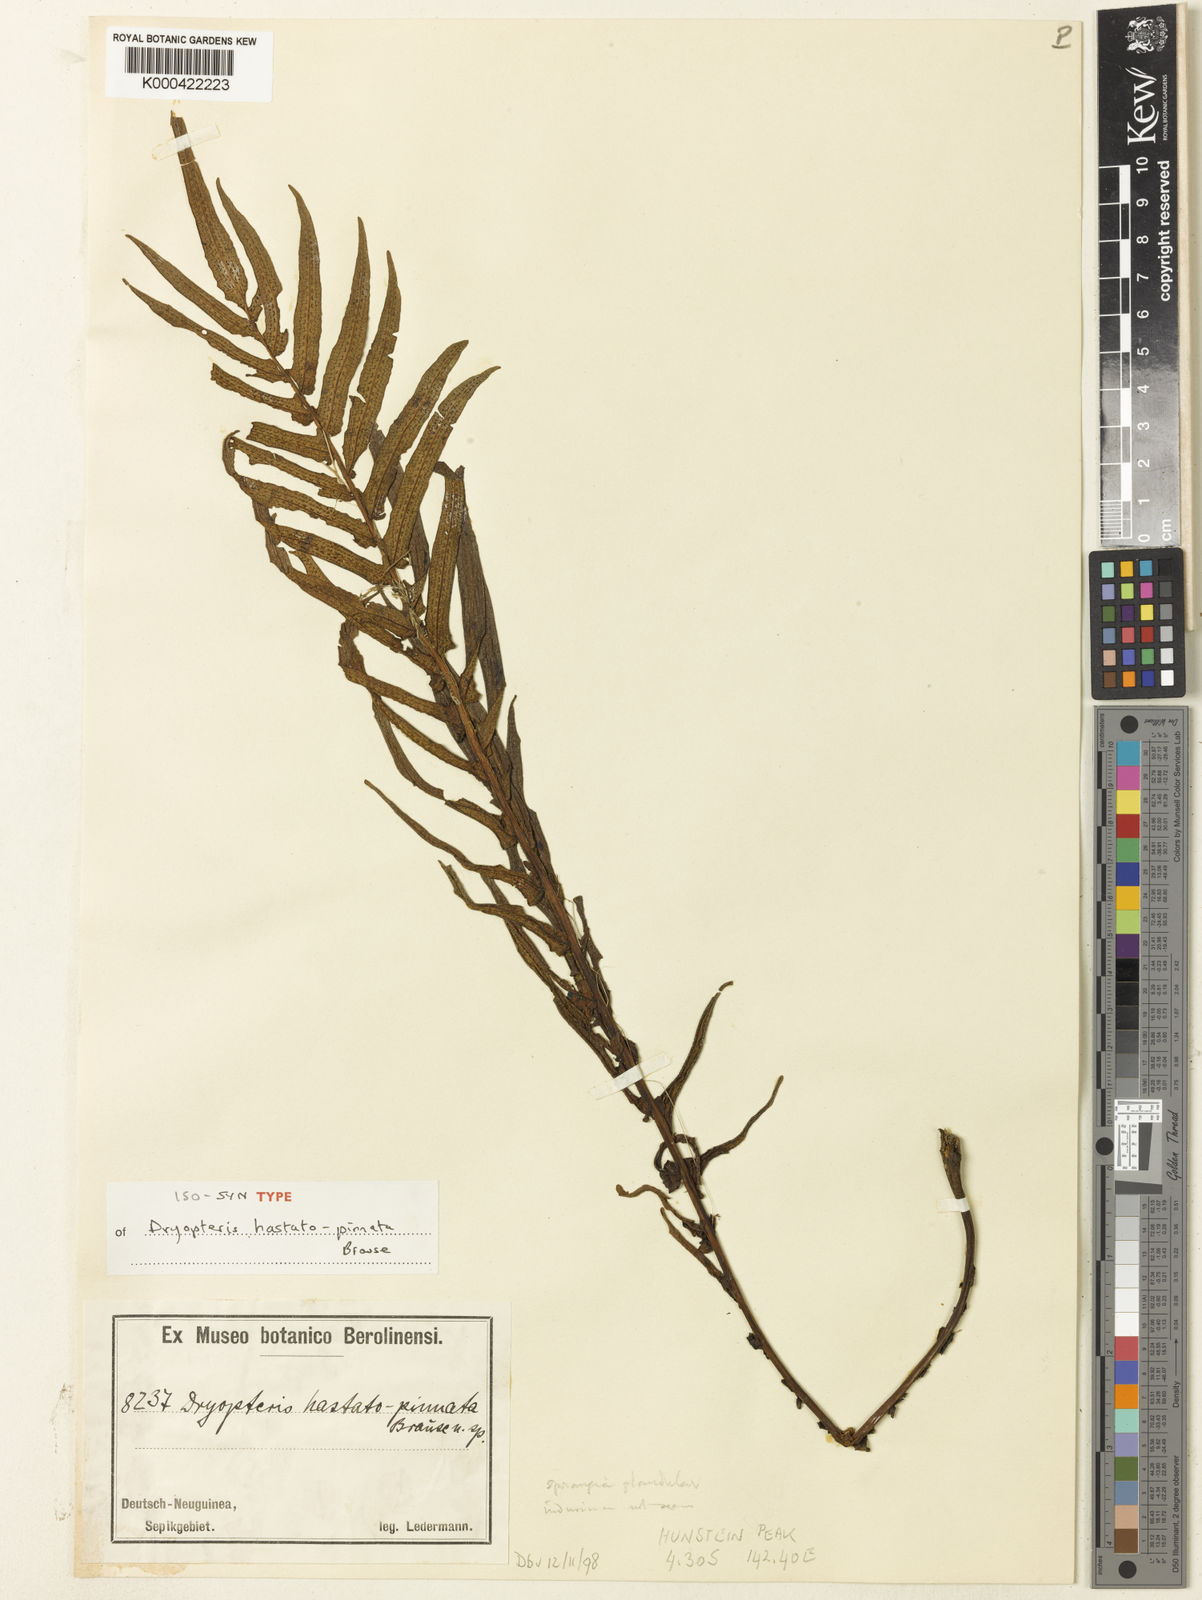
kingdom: Plantae
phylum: Tracheophyta
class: Polypodiopsida
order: Polypodiales
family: Thelypteridaceae
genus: Sphaerostephanos
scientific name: Sphaerostephanos hastatopinnatus
